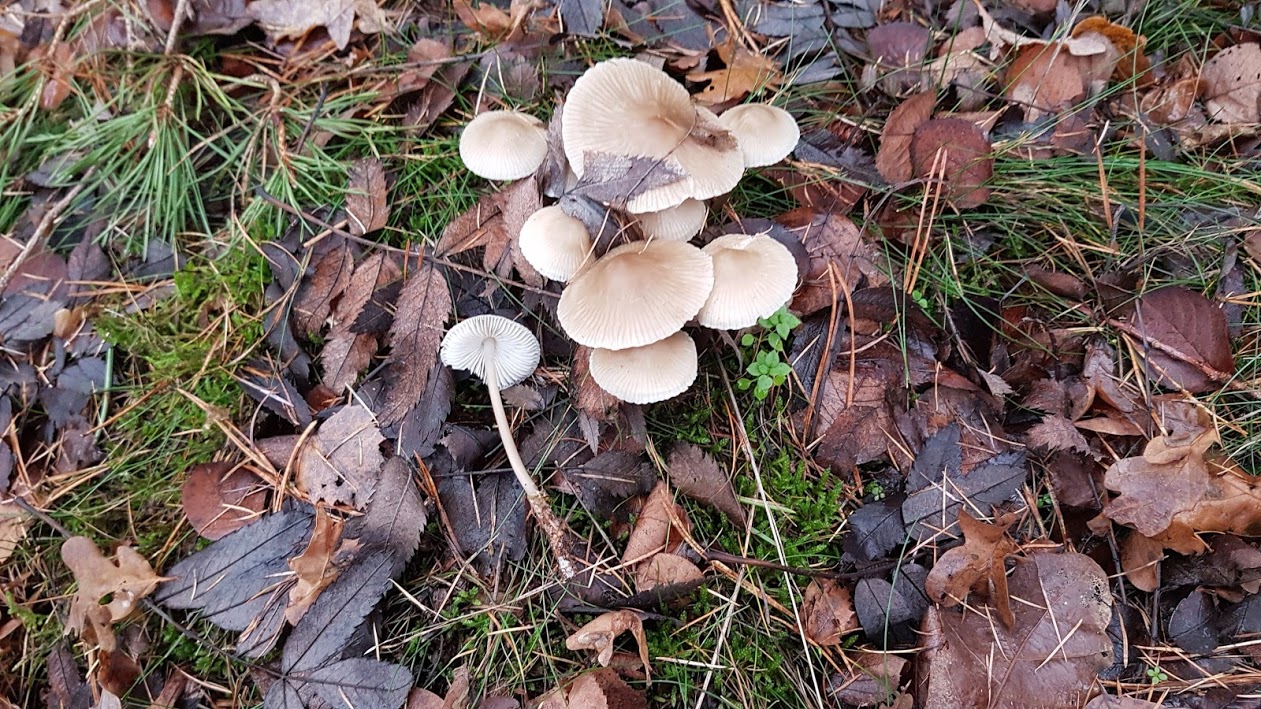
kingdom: Fungi
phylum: Basidiomycota
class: Agaricomycetes
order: Agaricales
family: Mycenaceae
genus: Mycena
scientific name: Mycena galericulata
